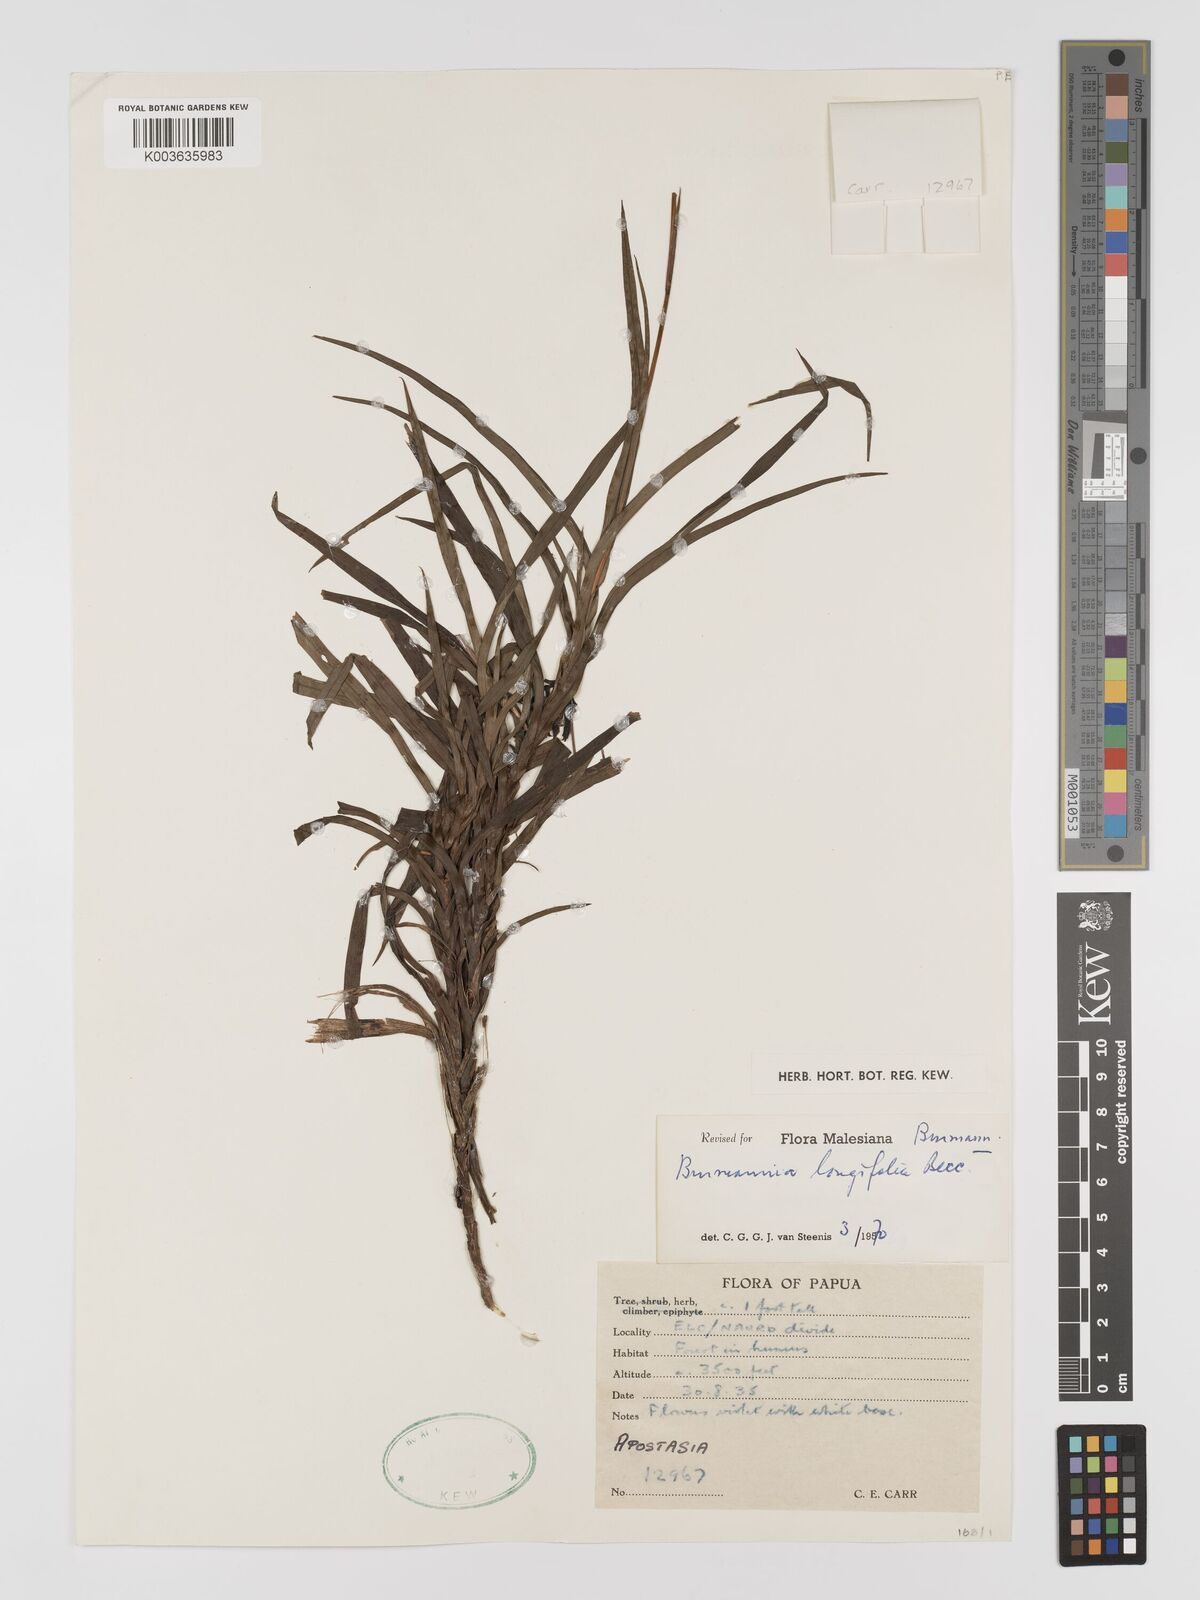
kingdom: Plantae
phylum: Tracheophyta
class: Liliopsida
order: Dioscoreales
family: Burmanniaceae
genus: Burmannia
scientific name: Burmannia longifolia
